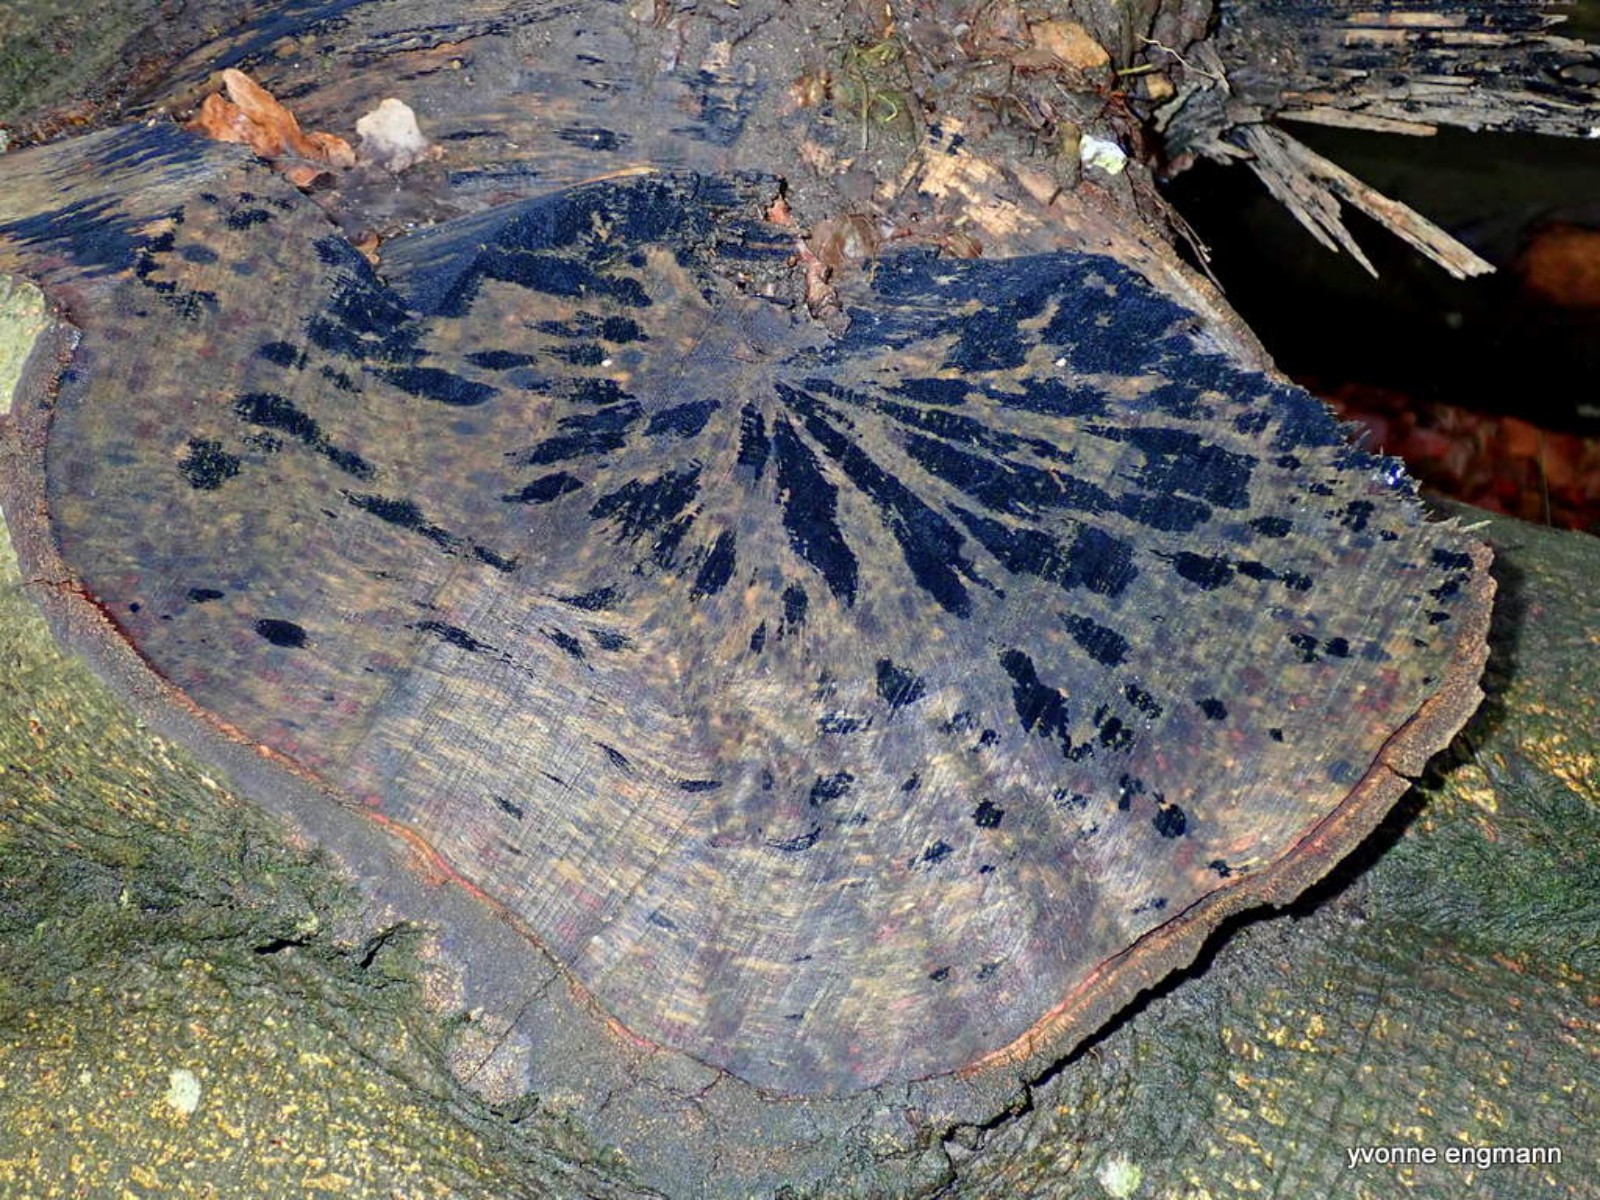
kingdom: Fungi
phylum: Ascomycota
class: Leotiomycetes
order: Helotiales
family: Helotiaceae
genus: Bispora
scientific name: Bispora pallescens
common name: måtte-snitskive
